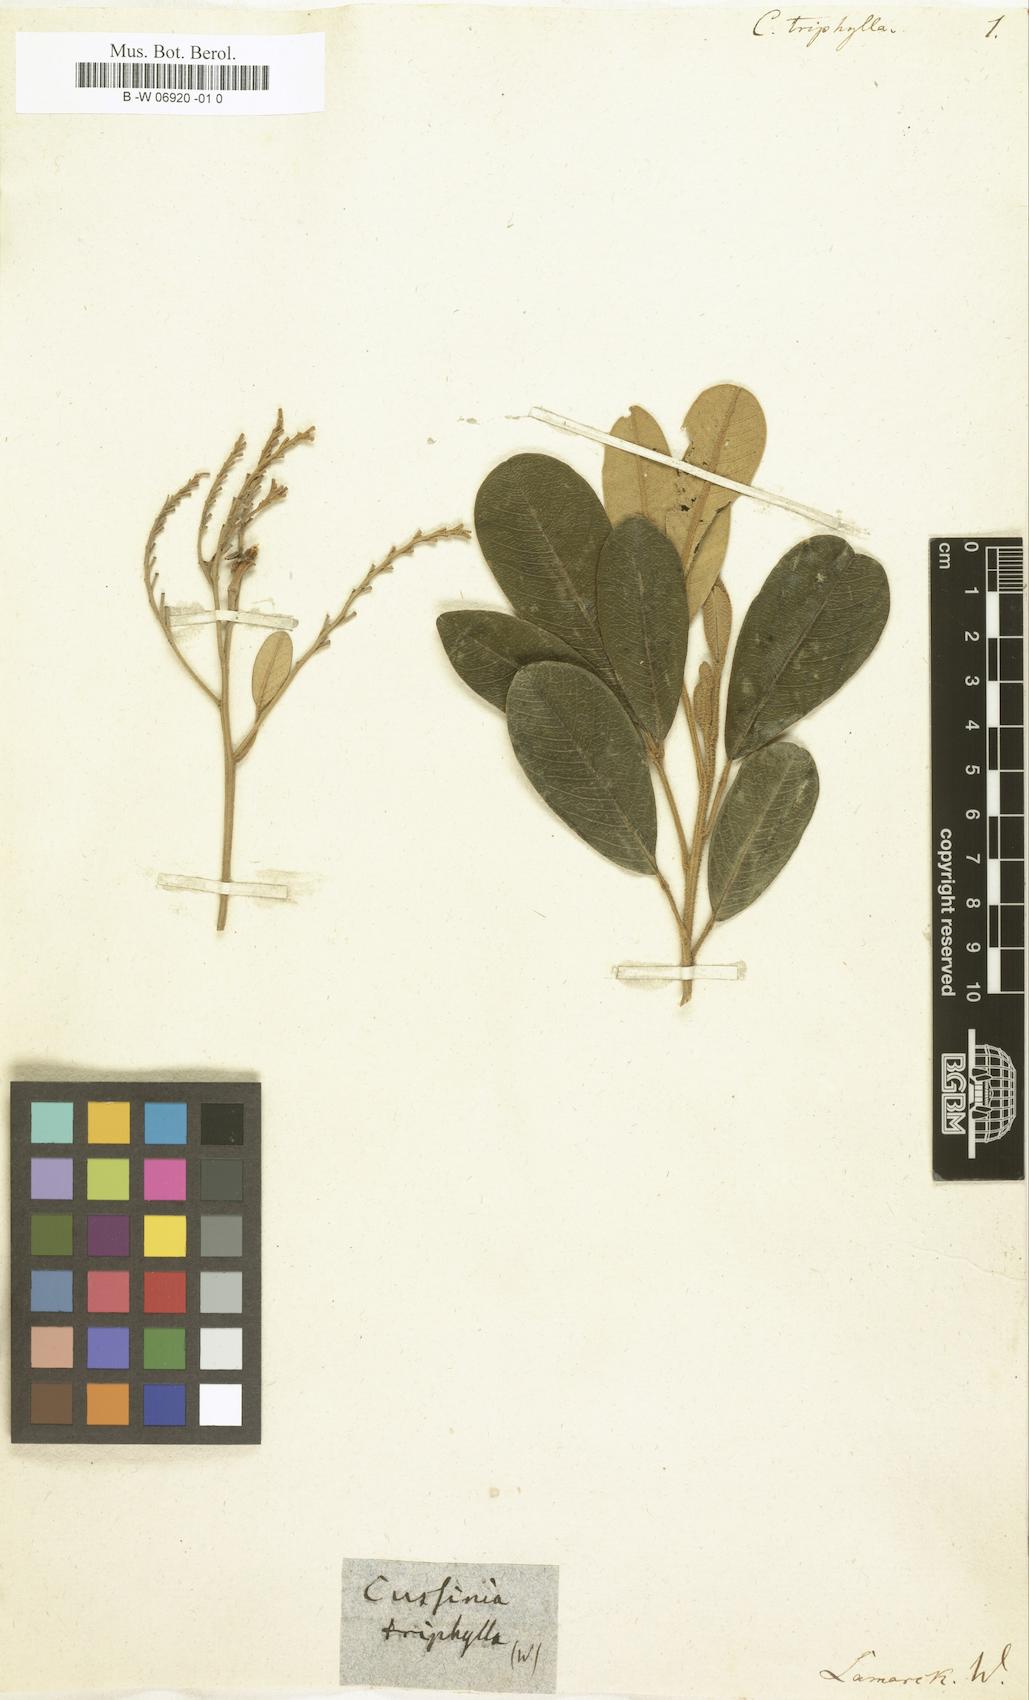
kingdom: Plantae
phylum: Tracheophyta
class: Magnoliopsida
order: Sapindales
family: Sapindaceae
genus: Cossinia
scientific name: Cossinia pinnata
